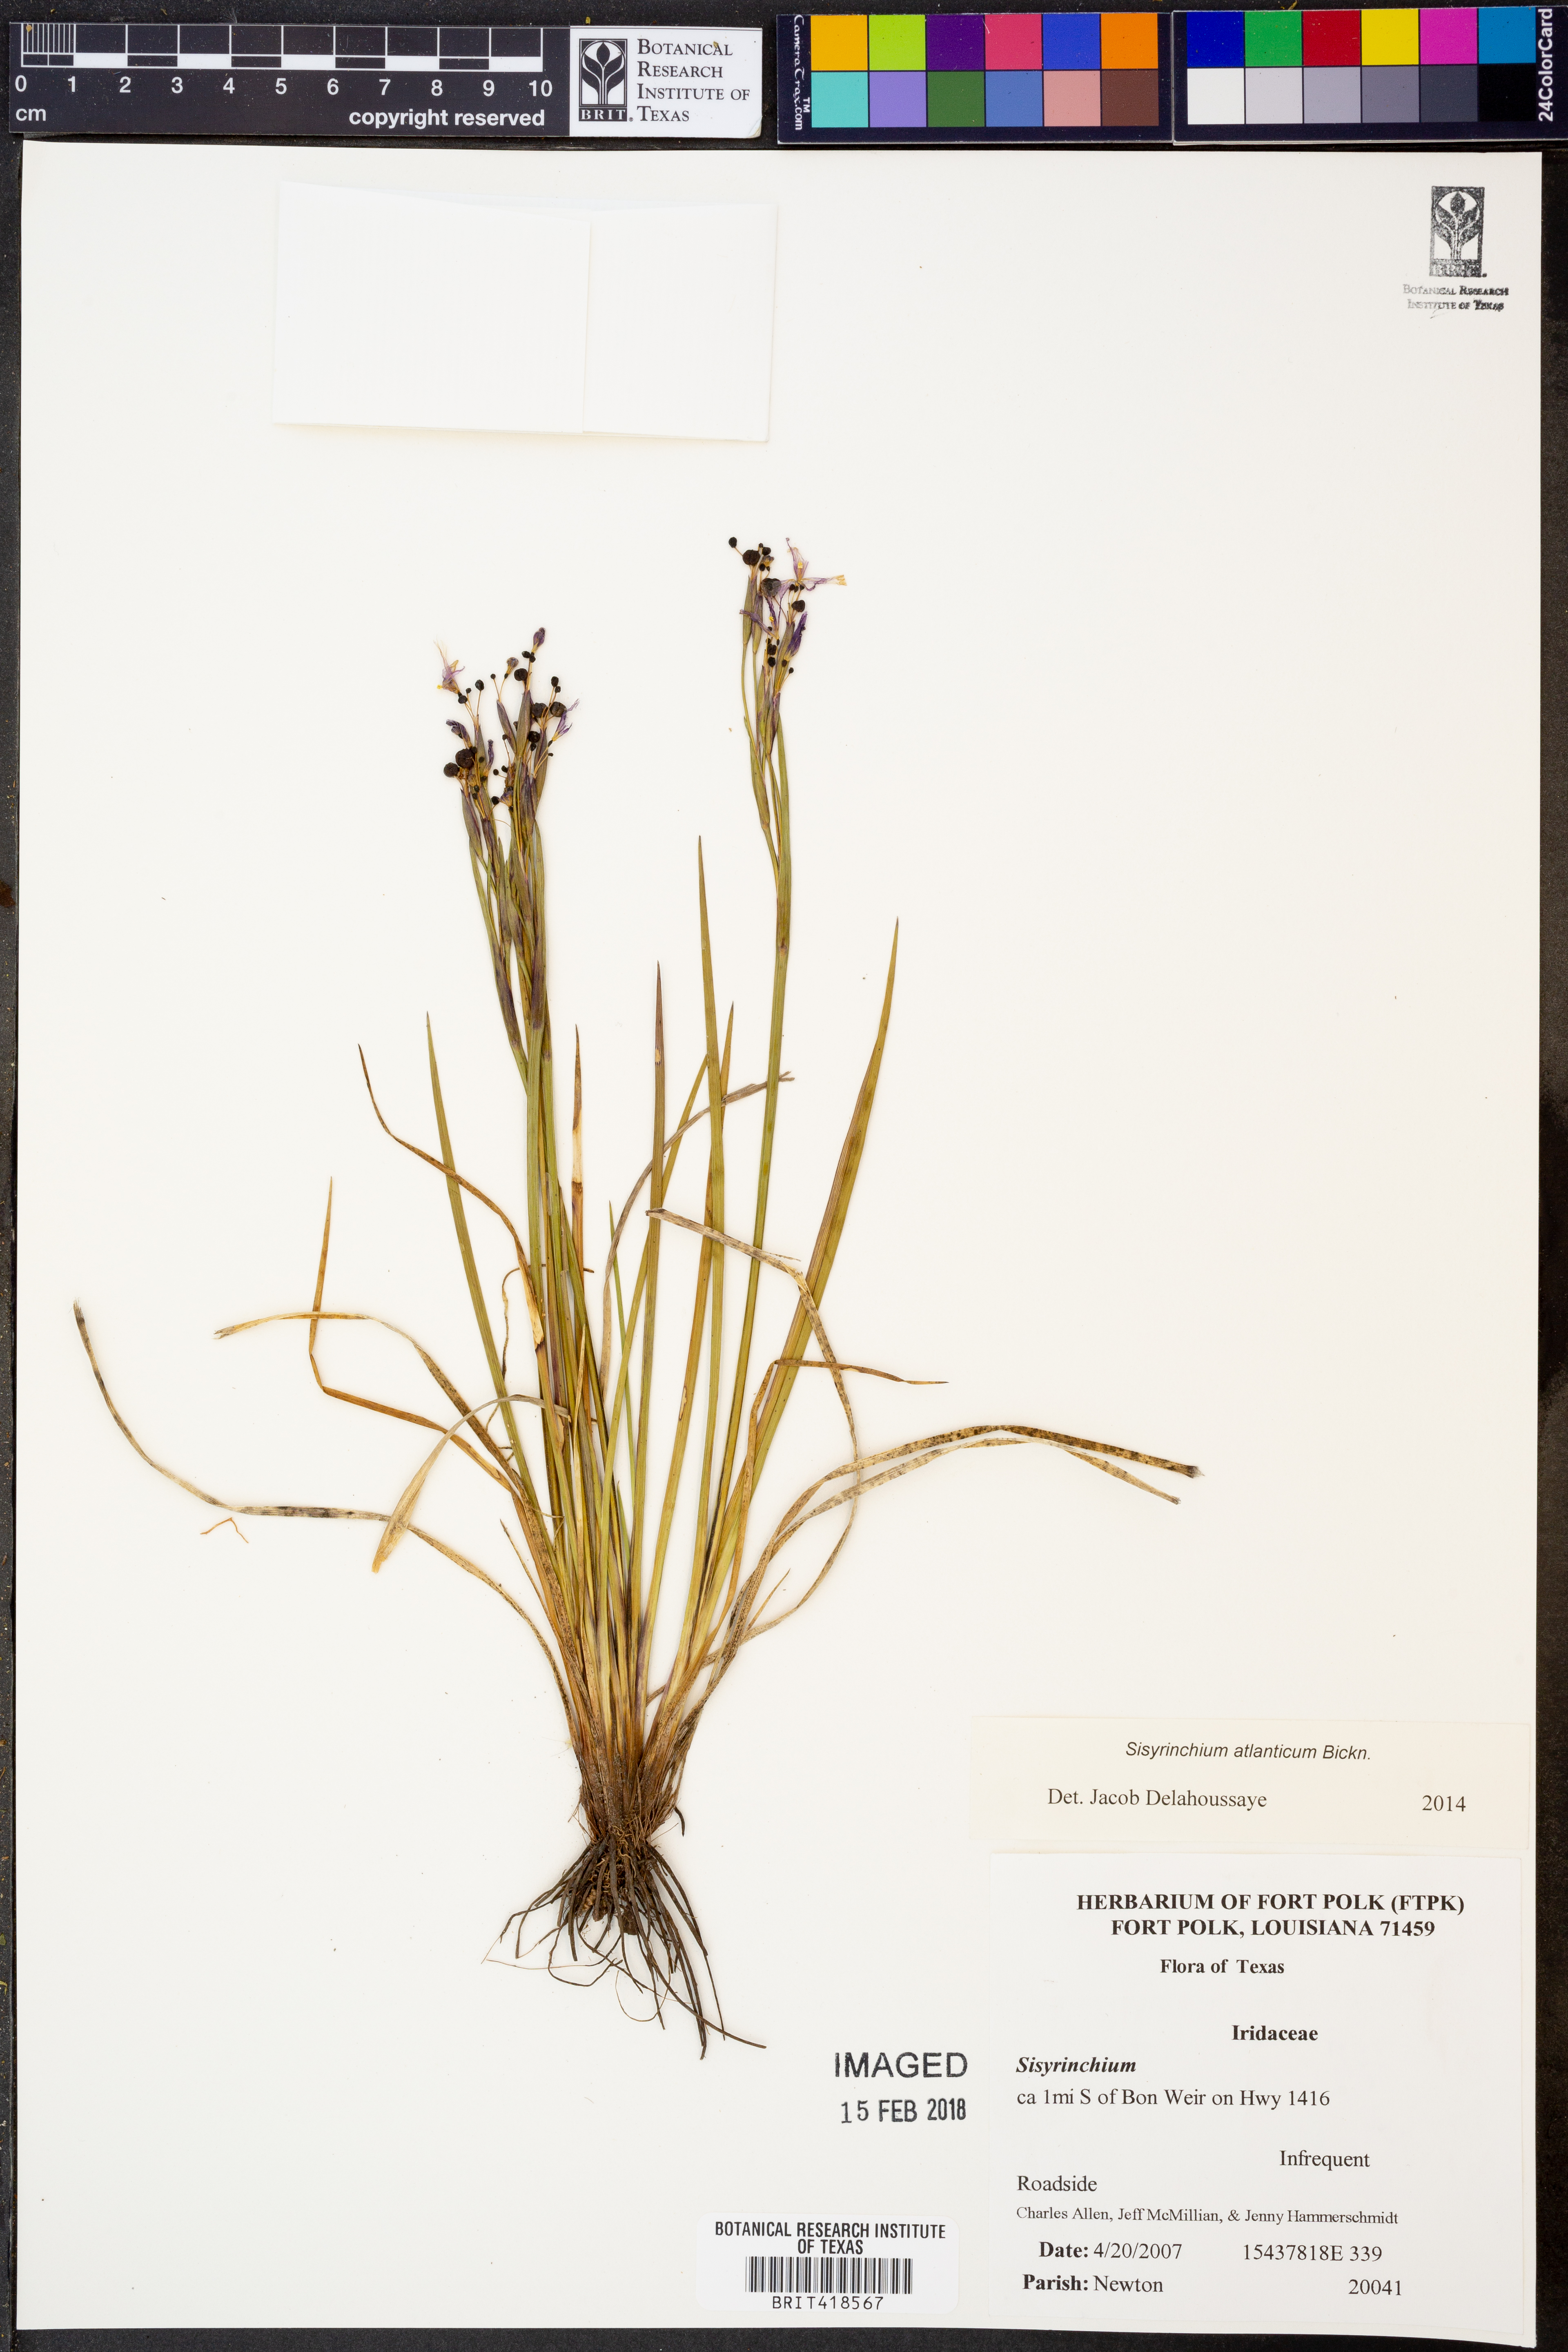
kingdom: Plantae
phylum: Tracheophyta
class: Liliopsida
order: Asparagales
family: Iridaceae
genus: Sisyrinchium
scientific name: Sisyrinchium atlanticum
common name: Eastern blue-eyed-grass
